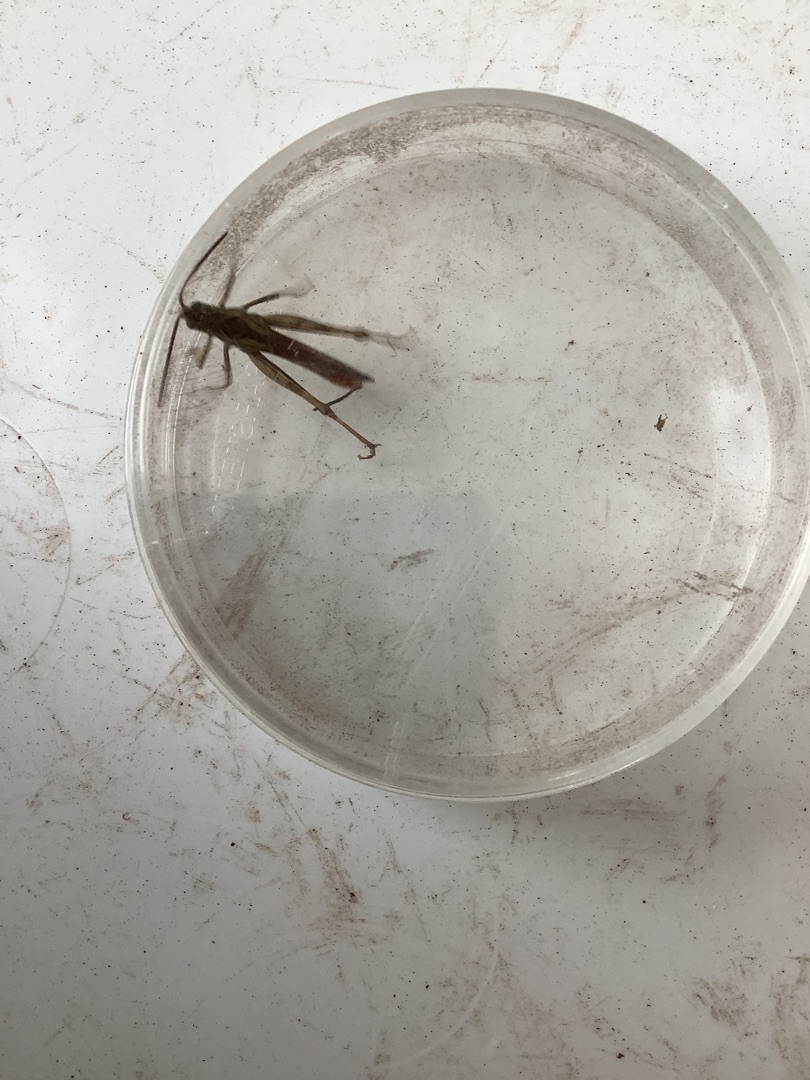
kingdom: Animalia
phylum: Arthropoda
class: Insecta
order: Orthoptera
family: Acrididae
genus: Chorthippus
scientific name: Chorthippus
